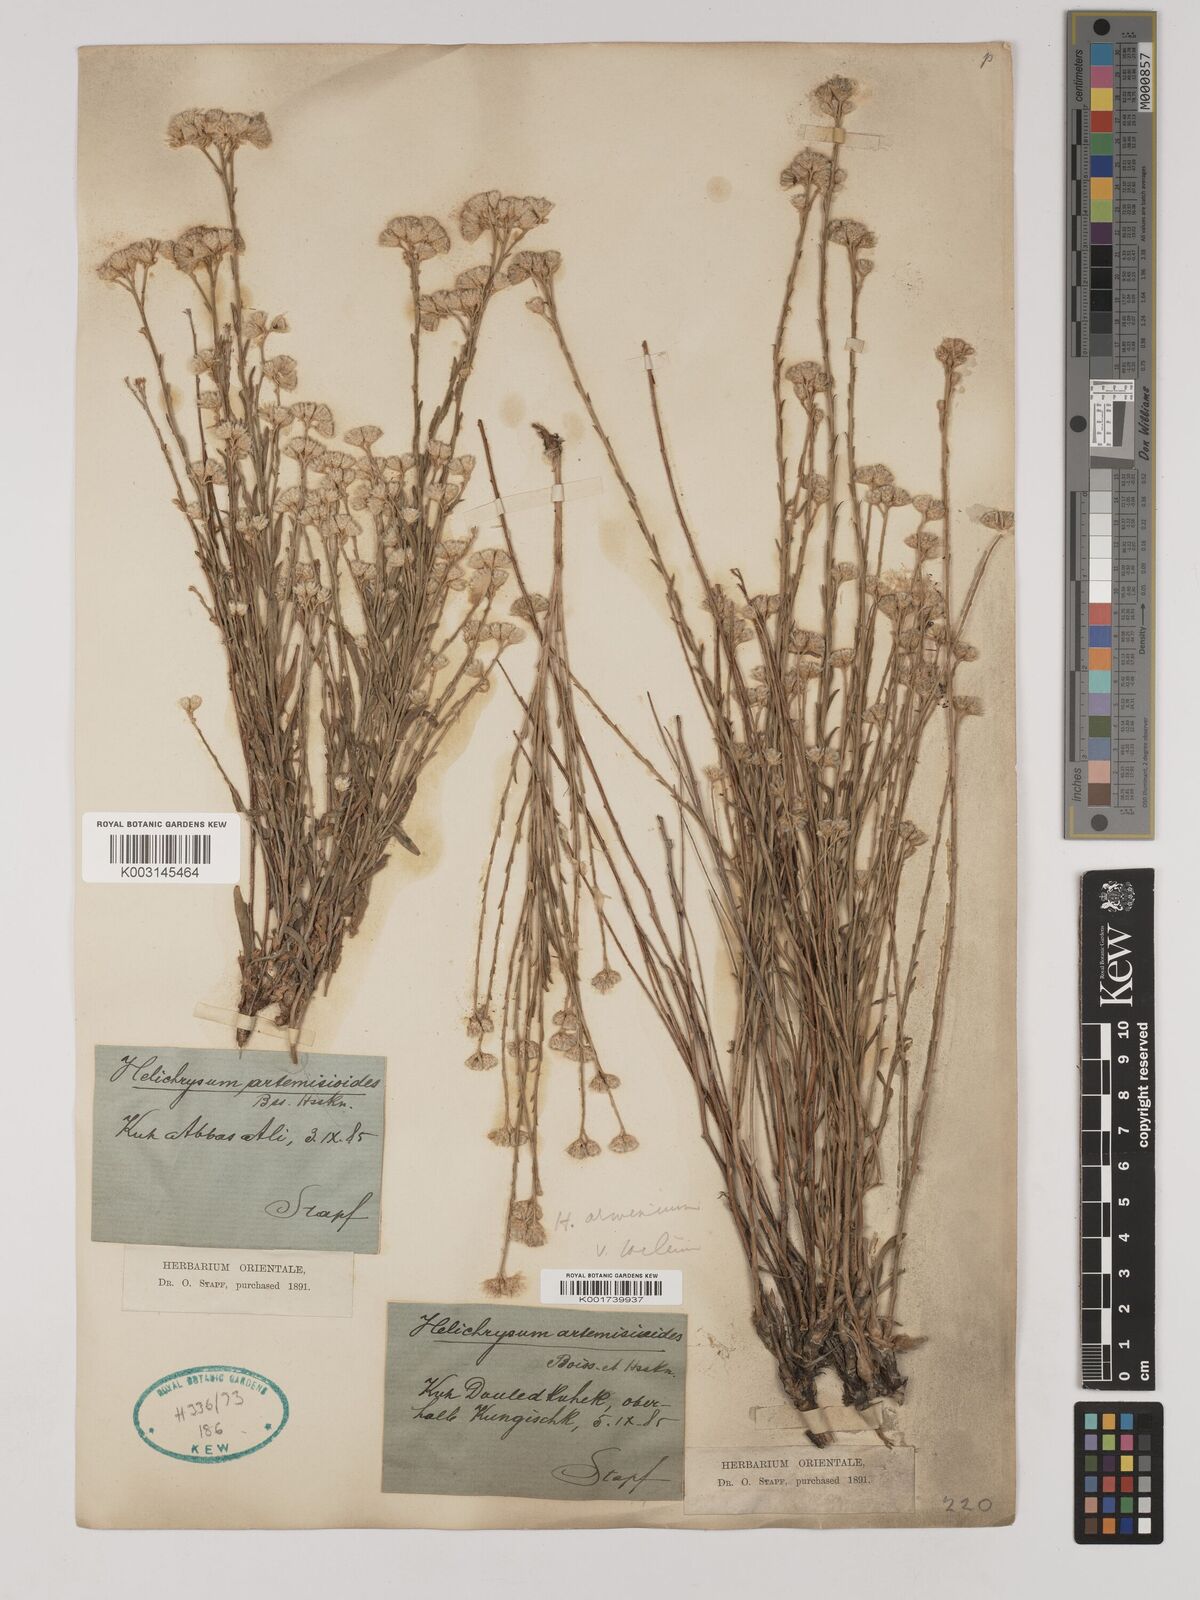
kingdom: Plantae
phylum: Tracheophyta
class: Magnoliopsida
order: Asterales
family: Asteraceae
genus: Helichrysum
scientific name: Helichrysum armenium
